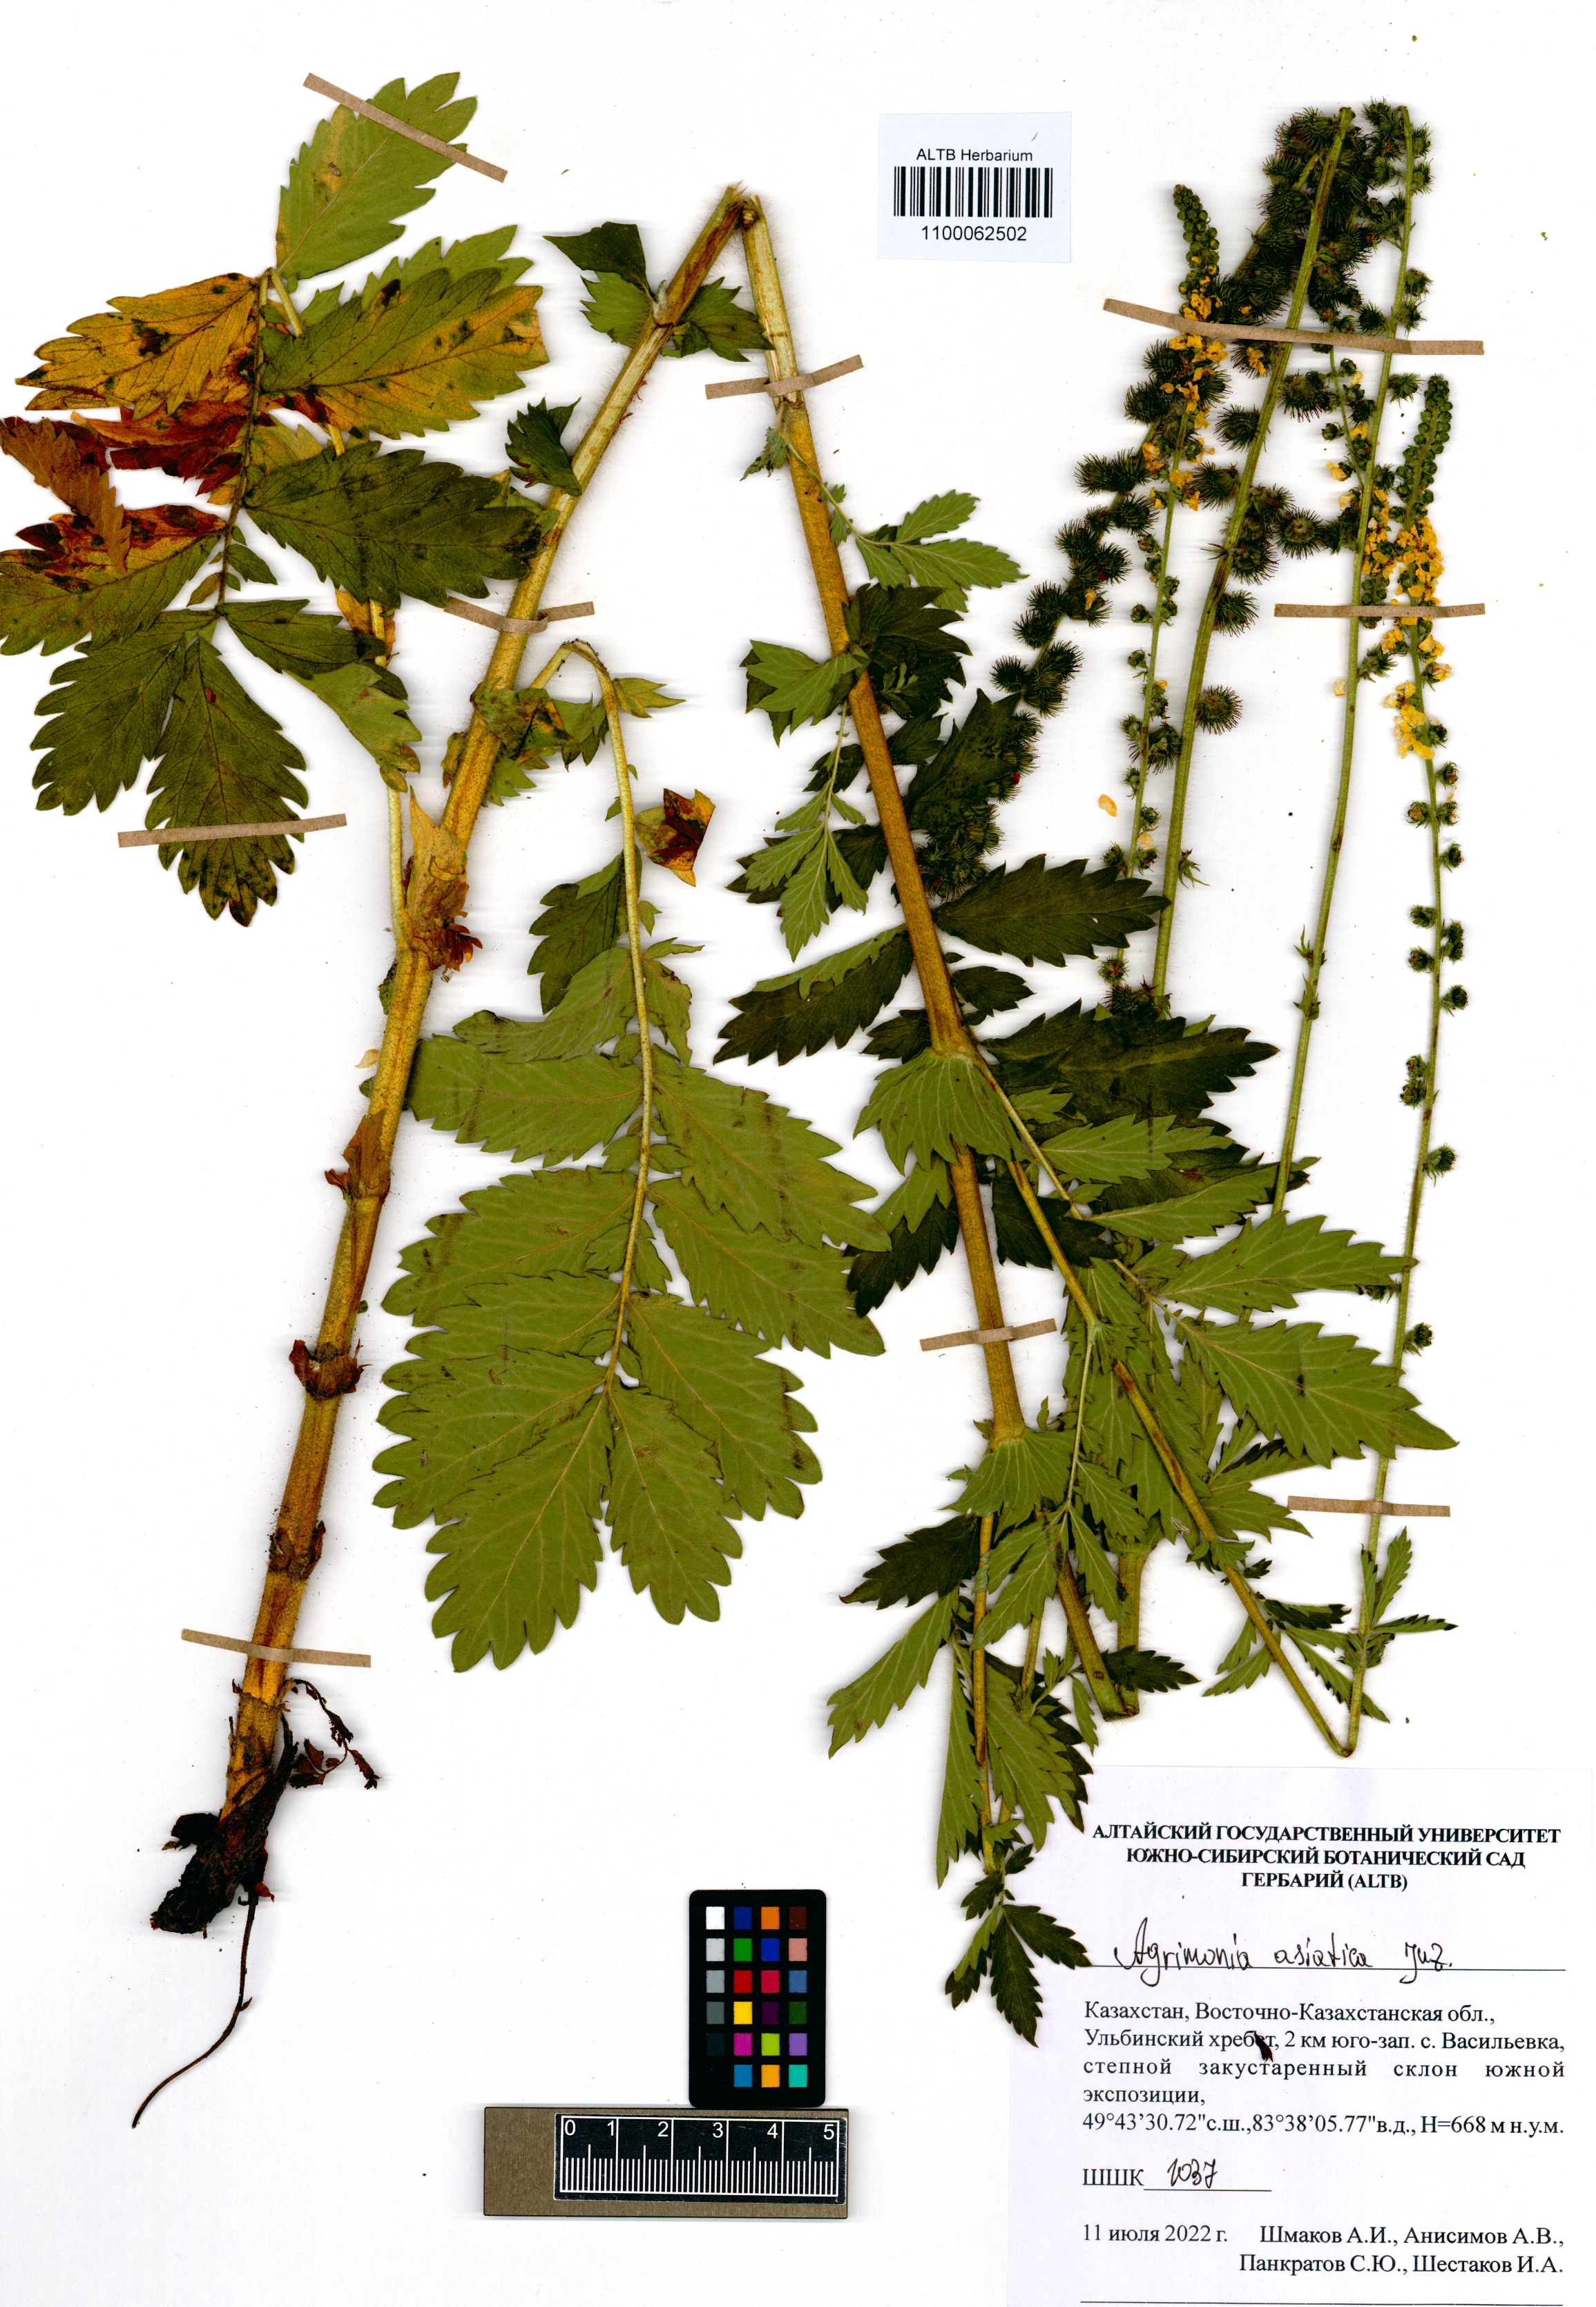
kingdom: Plantae
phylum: Tracheophyta
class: Magnoliopsida
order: Rosales
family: Rosaceae
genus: Agrimonia
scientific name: Agrimonia pilosa
